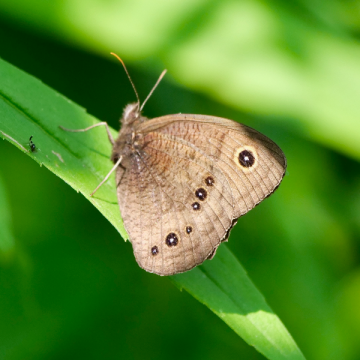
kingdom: Animalia
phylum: Arthropoda
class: Insecta
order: Lepidoptera
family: Nymphalidae
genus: Cercyonis
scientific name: Cercyonis pegala
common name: Common Wood-Nymph
